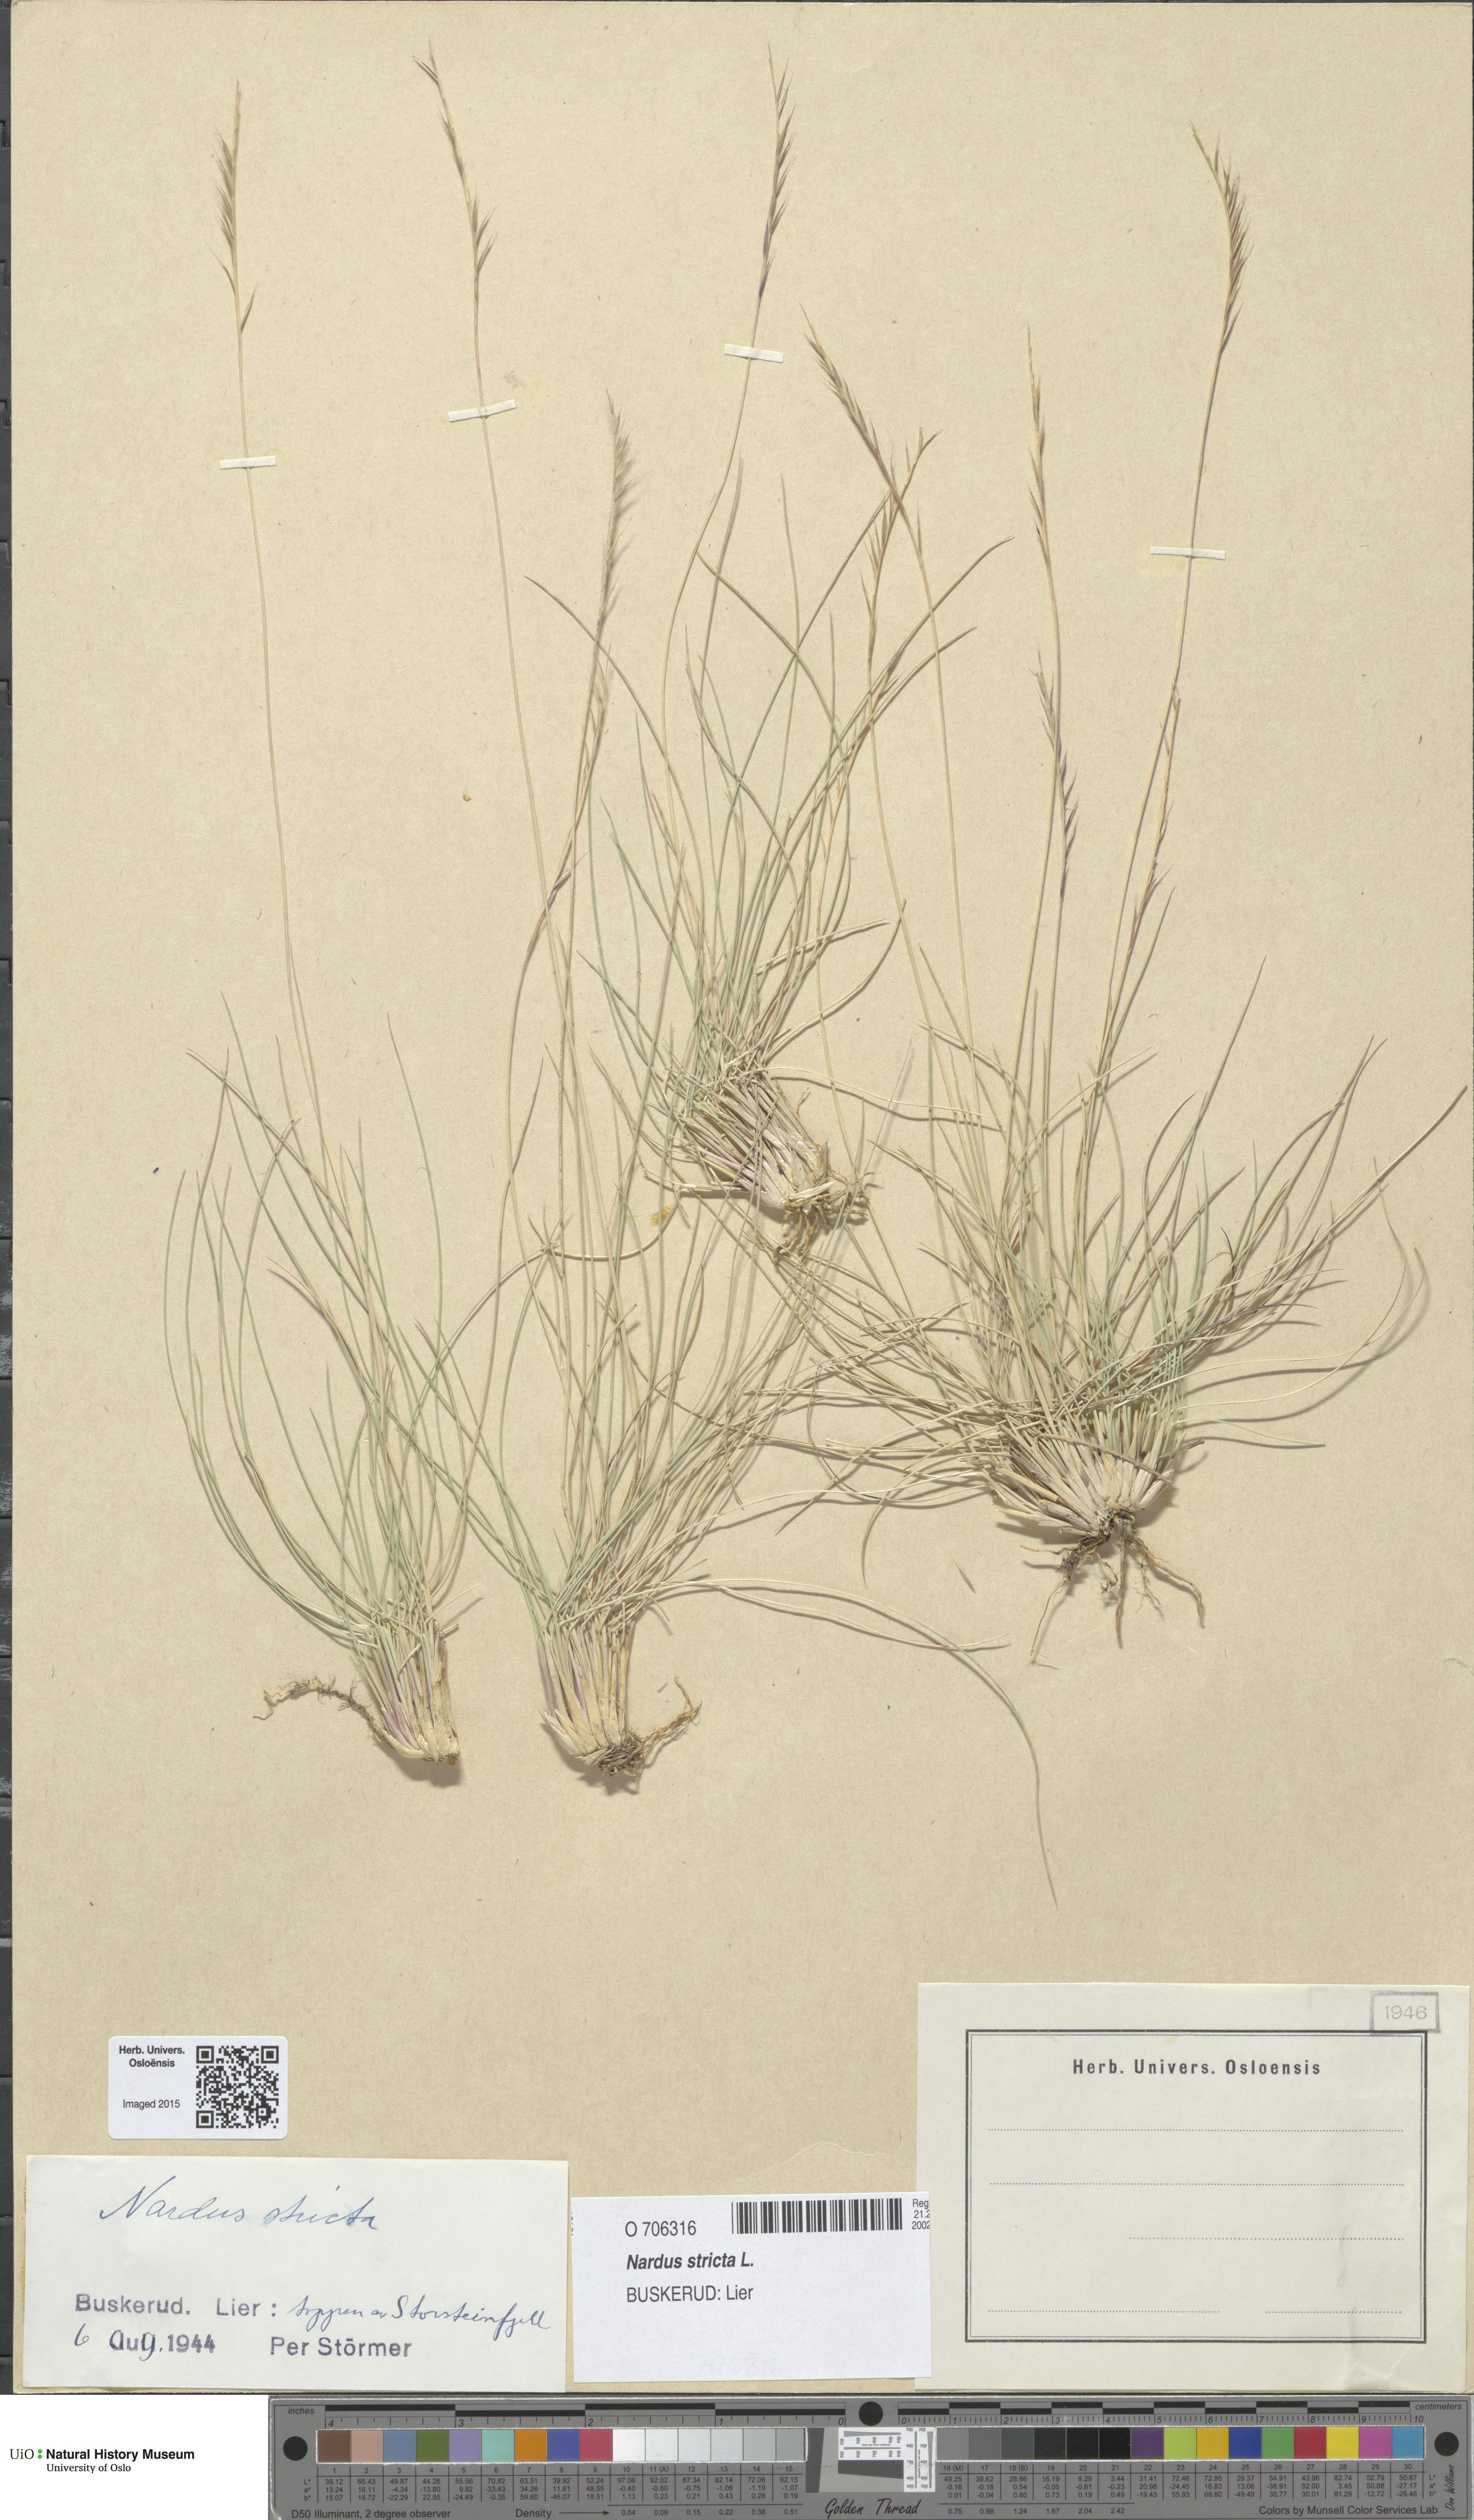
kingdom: Plantae
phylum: Tracheophyta
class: Liliopsida
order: Poales
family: Poaceae
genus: Nardus
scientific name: Nardus stricta
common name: Mat-grass
